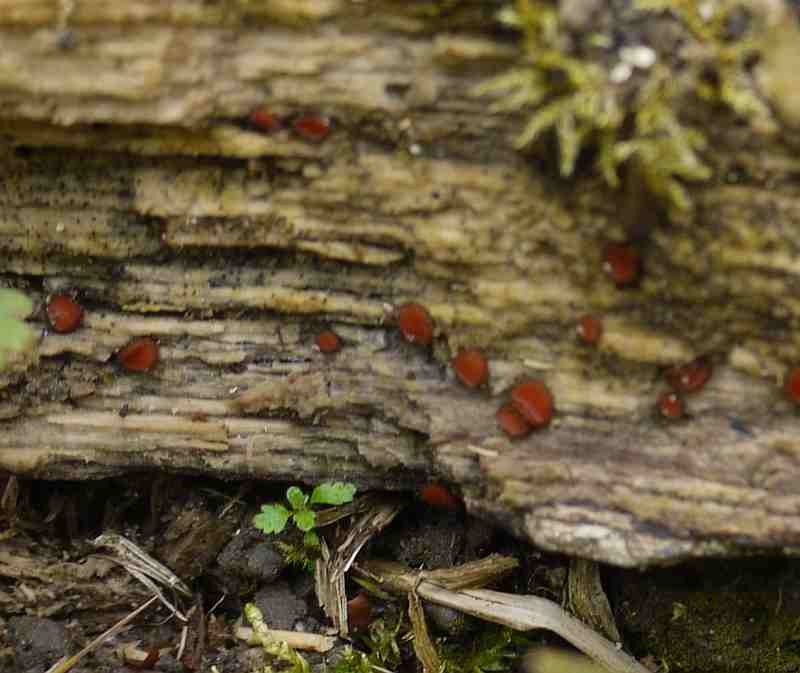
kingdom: Fungi
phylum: Ascomycota
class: Pezizomycetes
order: Pezizales
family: Pyronemataceae
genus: Scutellinia
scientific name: Scutellinia scutellata
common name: frynset skjoldbæger
